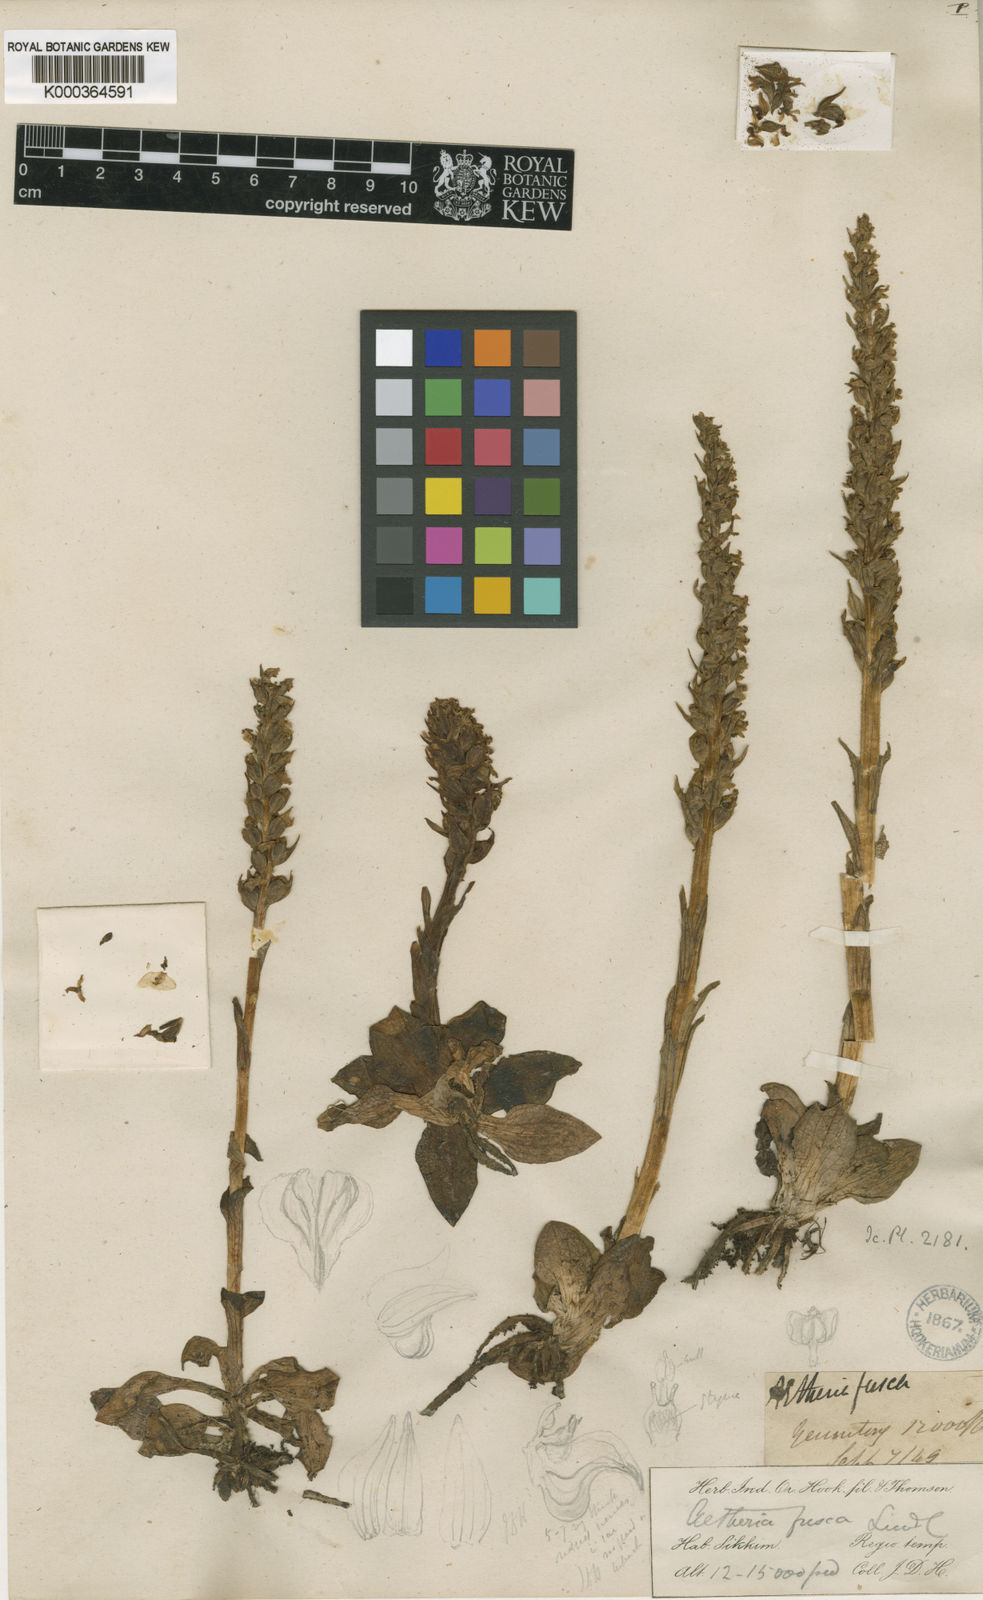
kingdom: Plantae
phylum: Tracheophyta
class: Liliopsida
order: Asparagales
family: Orchidaceae
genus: Goodyera
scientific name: Goodyera fusca
